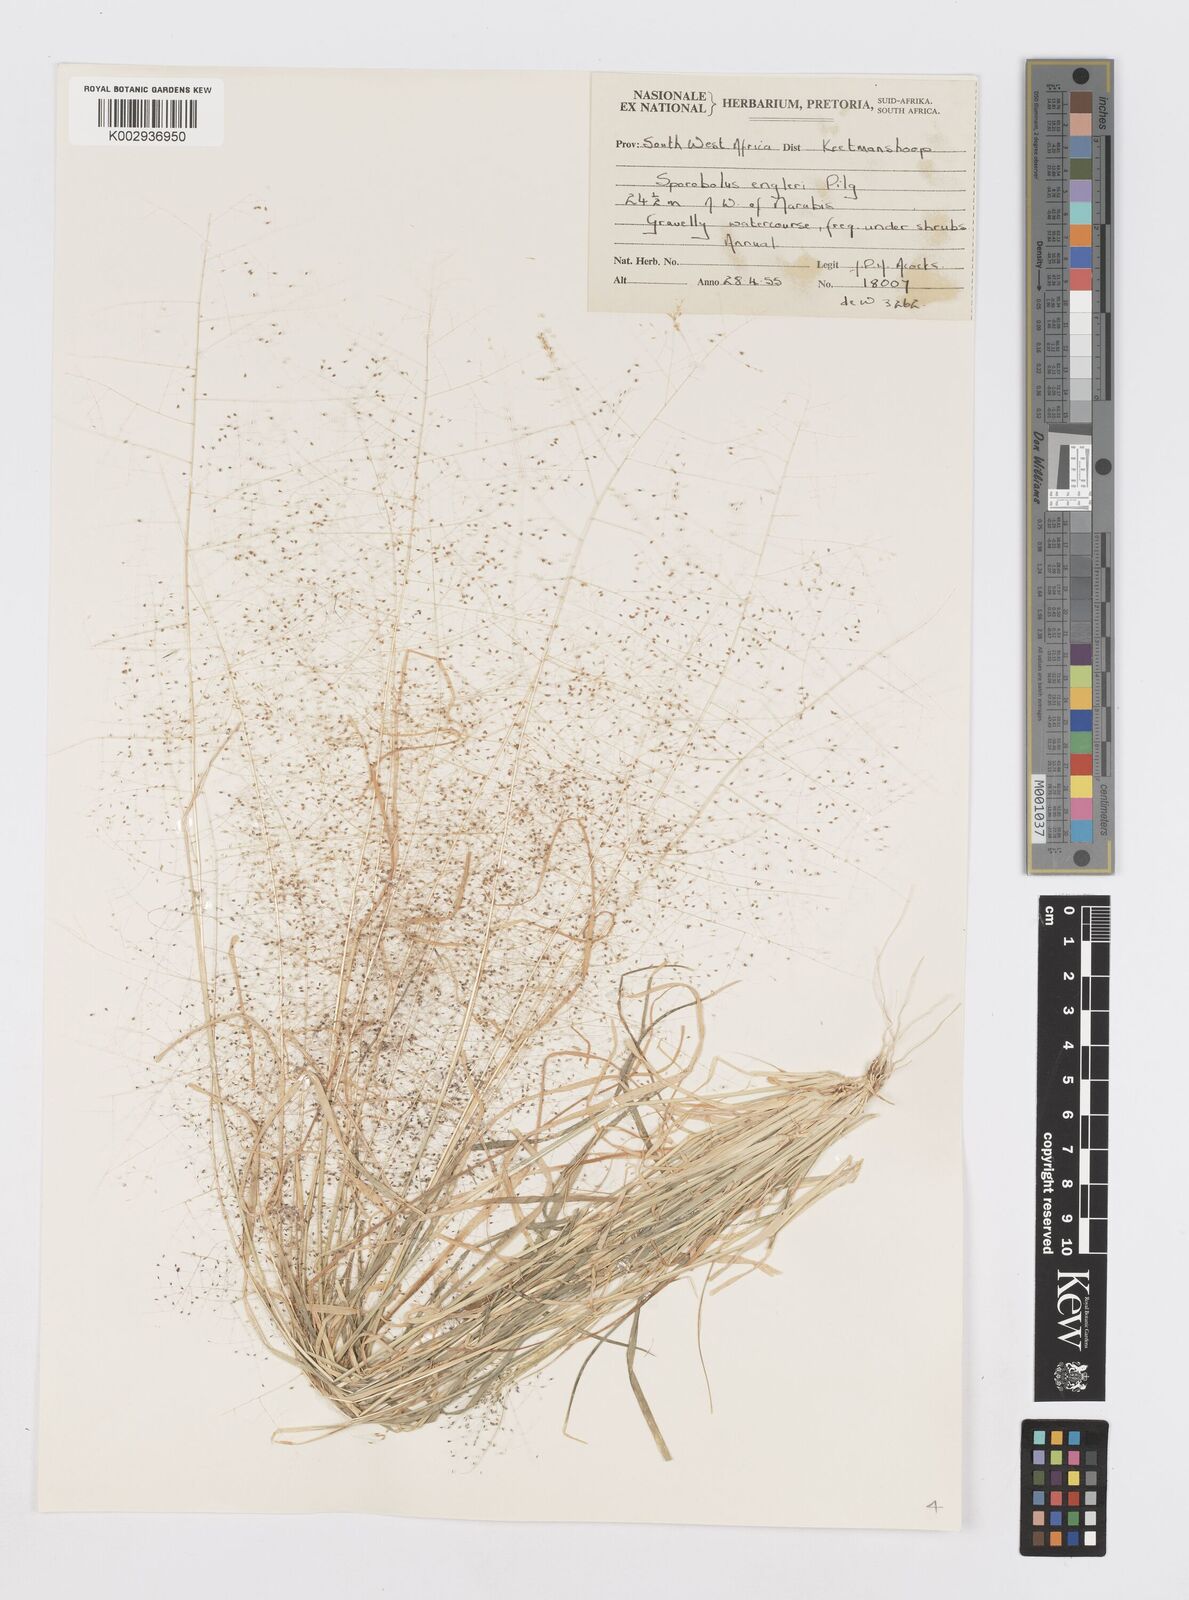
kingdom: Plantae
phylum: Tracheophyta
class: Liliopsida
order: Poales
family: Poaceae
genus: Sporobolus
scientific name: Sporobolus engleri
